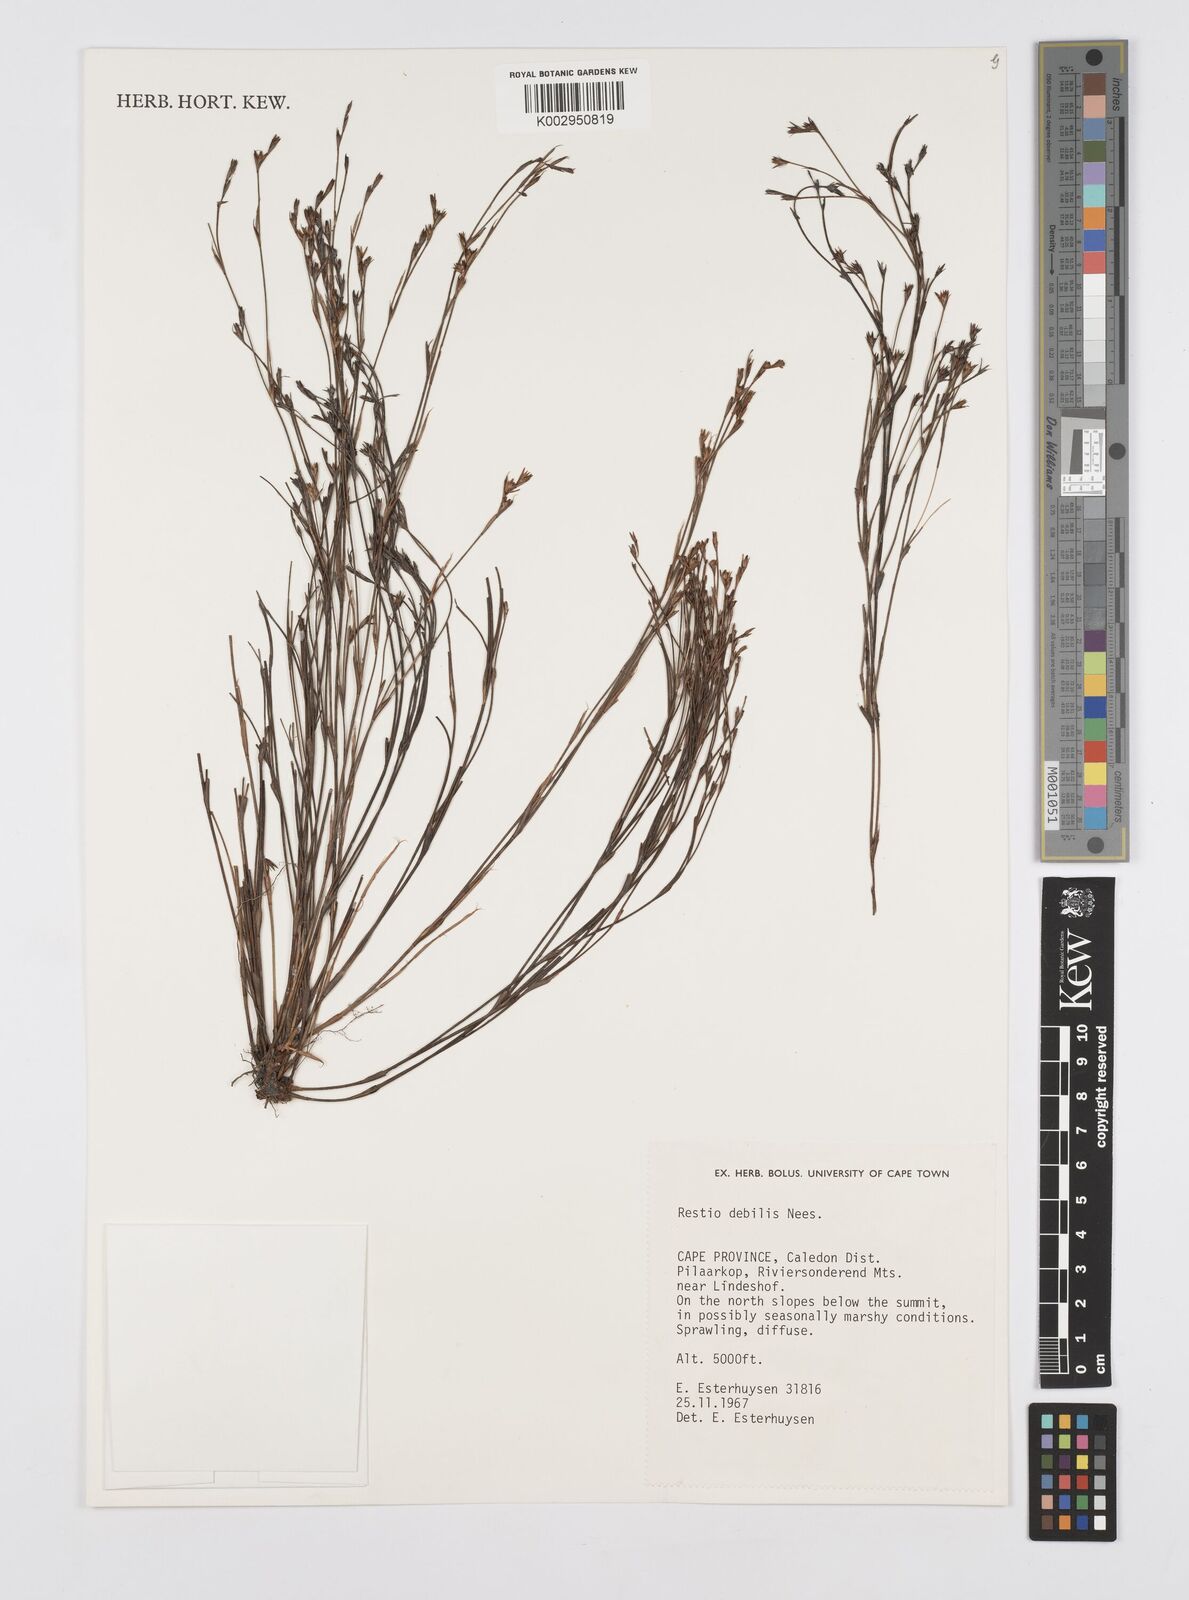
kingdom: Plantae
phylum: Tracheophyta
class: Liliopsida
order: Poales
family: Restionaceae
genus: Restio
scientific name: Restio debilis
